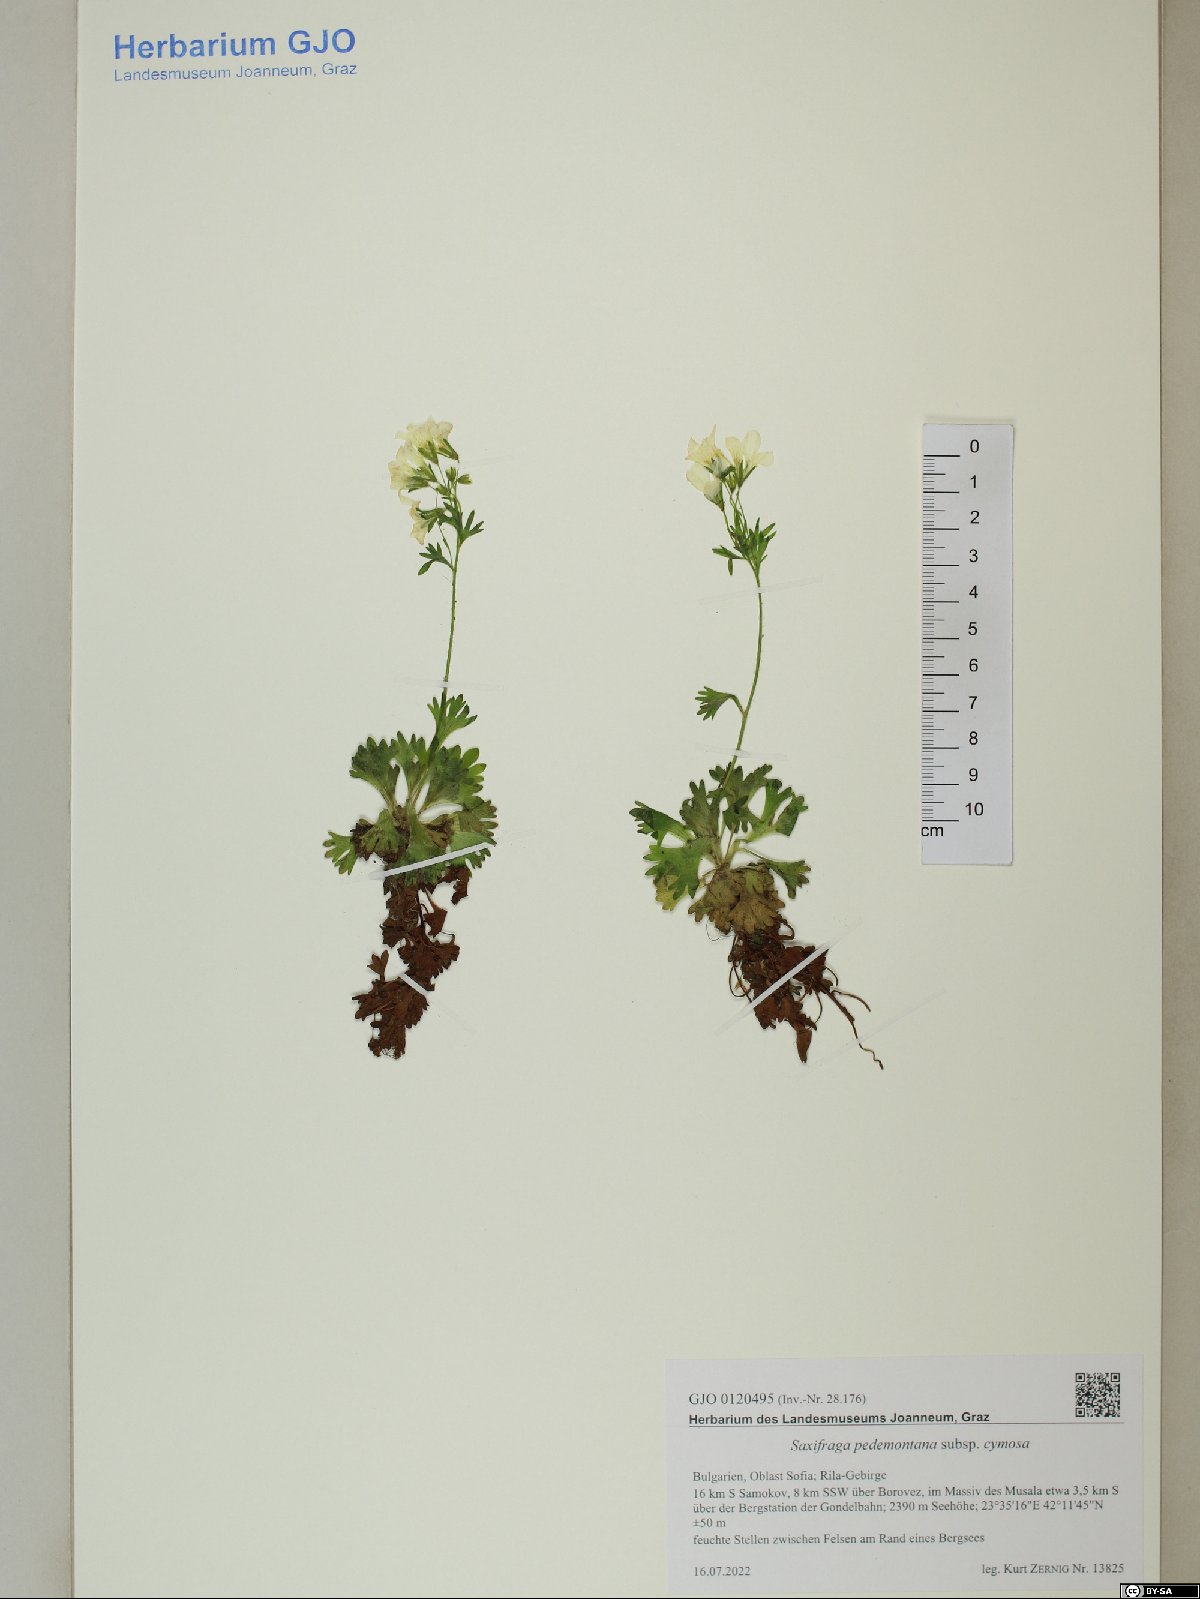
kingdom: Plantae
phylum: Tracheophyta
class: Magnoliopsida
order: Saxifragales
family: Saxifragaceae
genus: Saxifraga
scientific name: Saxifraga pedemontana
